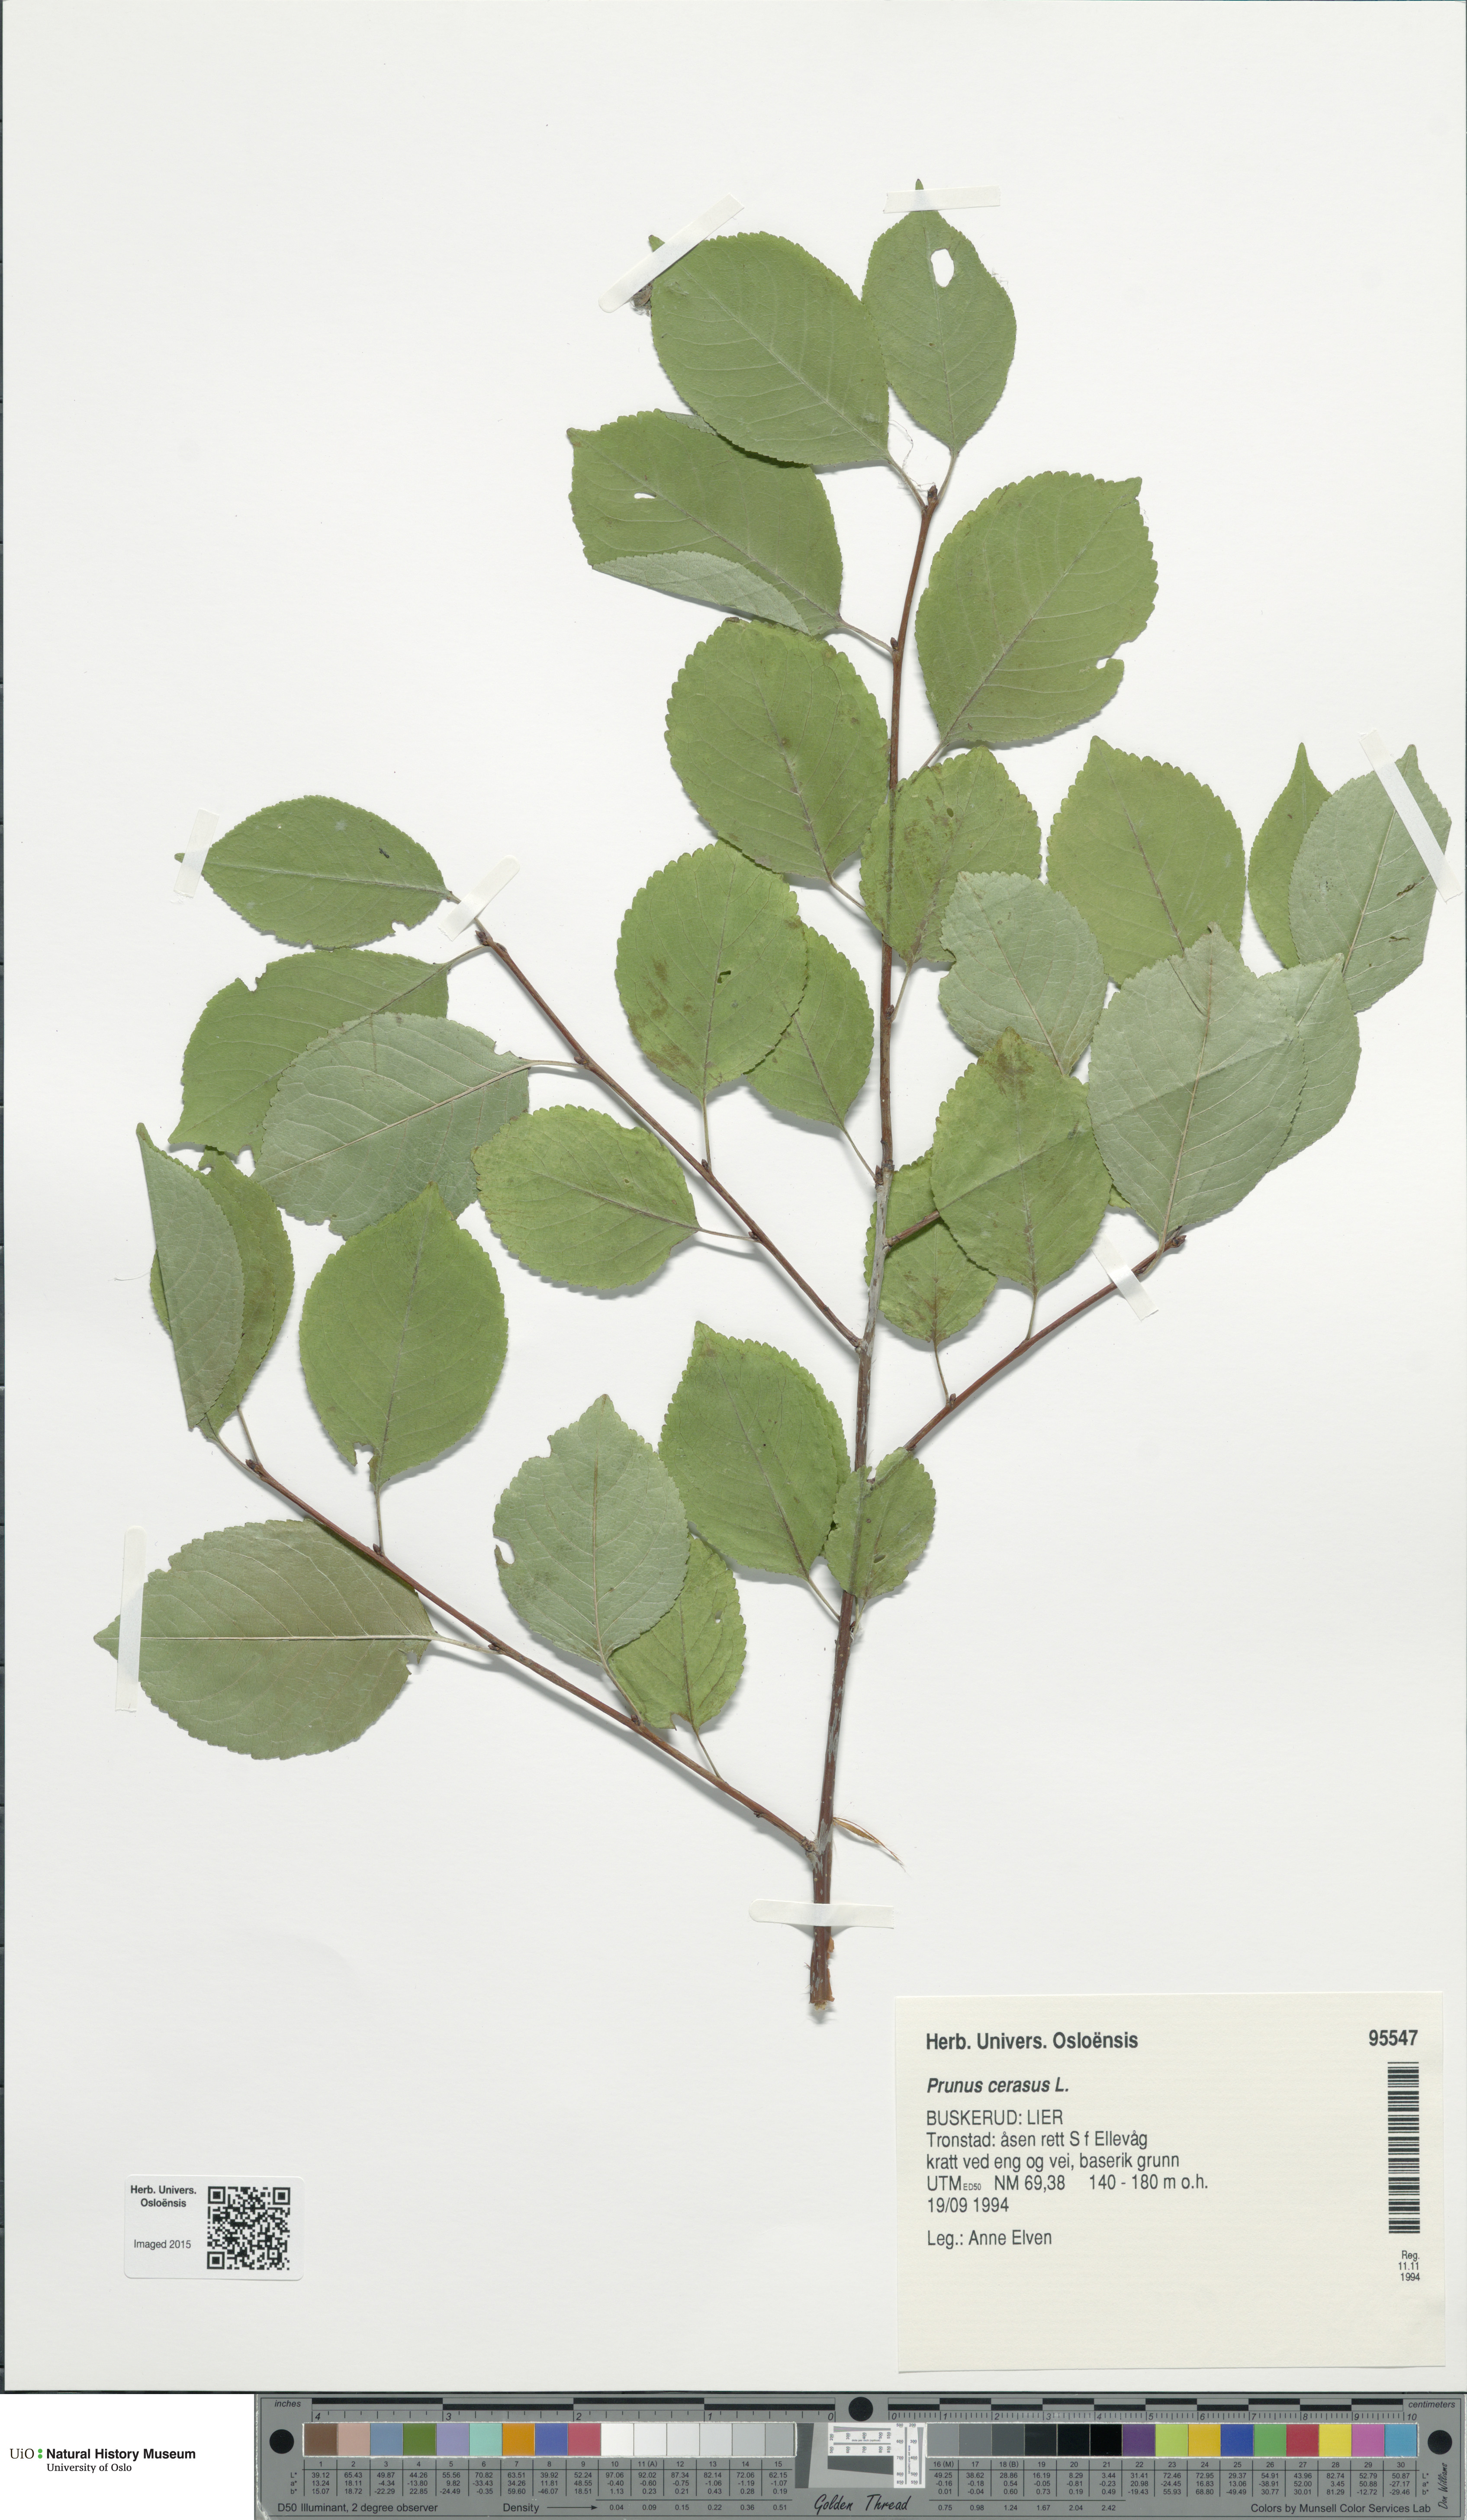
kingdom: Plantae
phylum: Tracheophyta
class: Magnoliopsida
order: Rosales
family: Rosaceae
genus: Prunus
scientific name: Prunus cerasus
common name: Morello cherry
